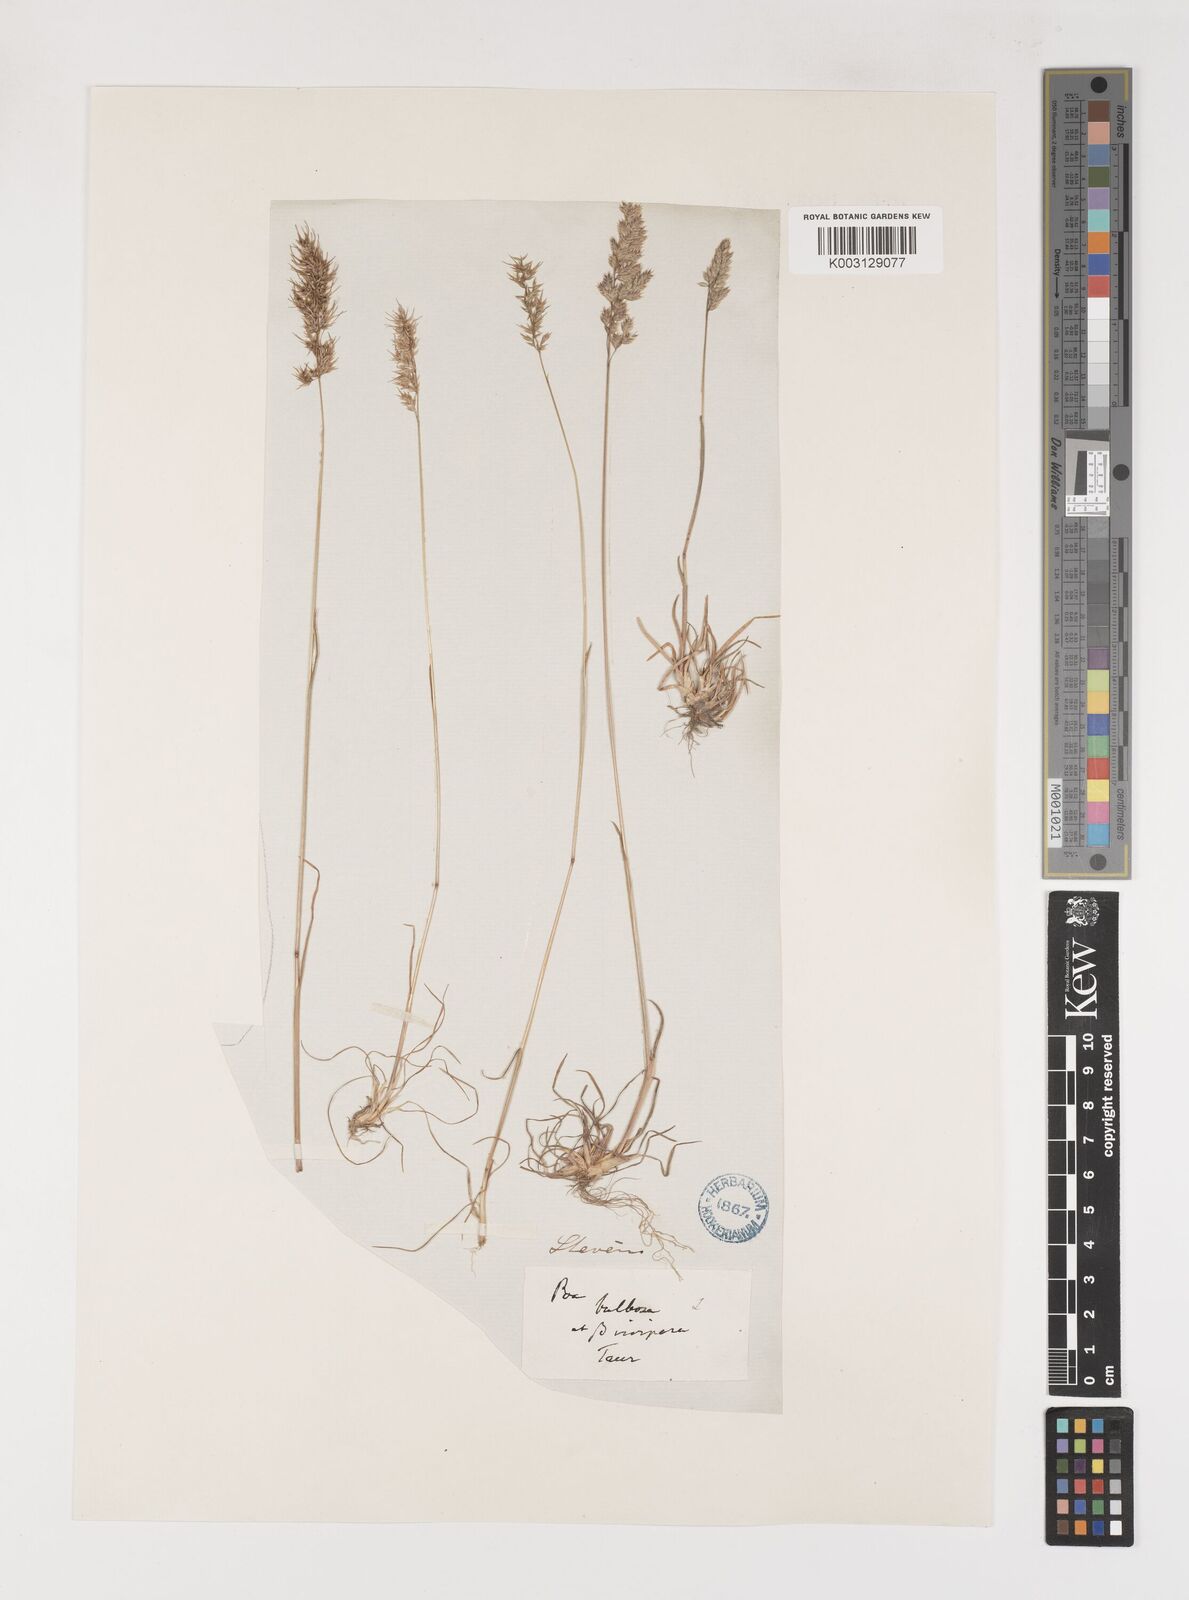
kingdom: Plantae
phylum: Tracheophyta
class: Liliopsida
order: Poales
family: Poaceae
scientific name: Poaceae
